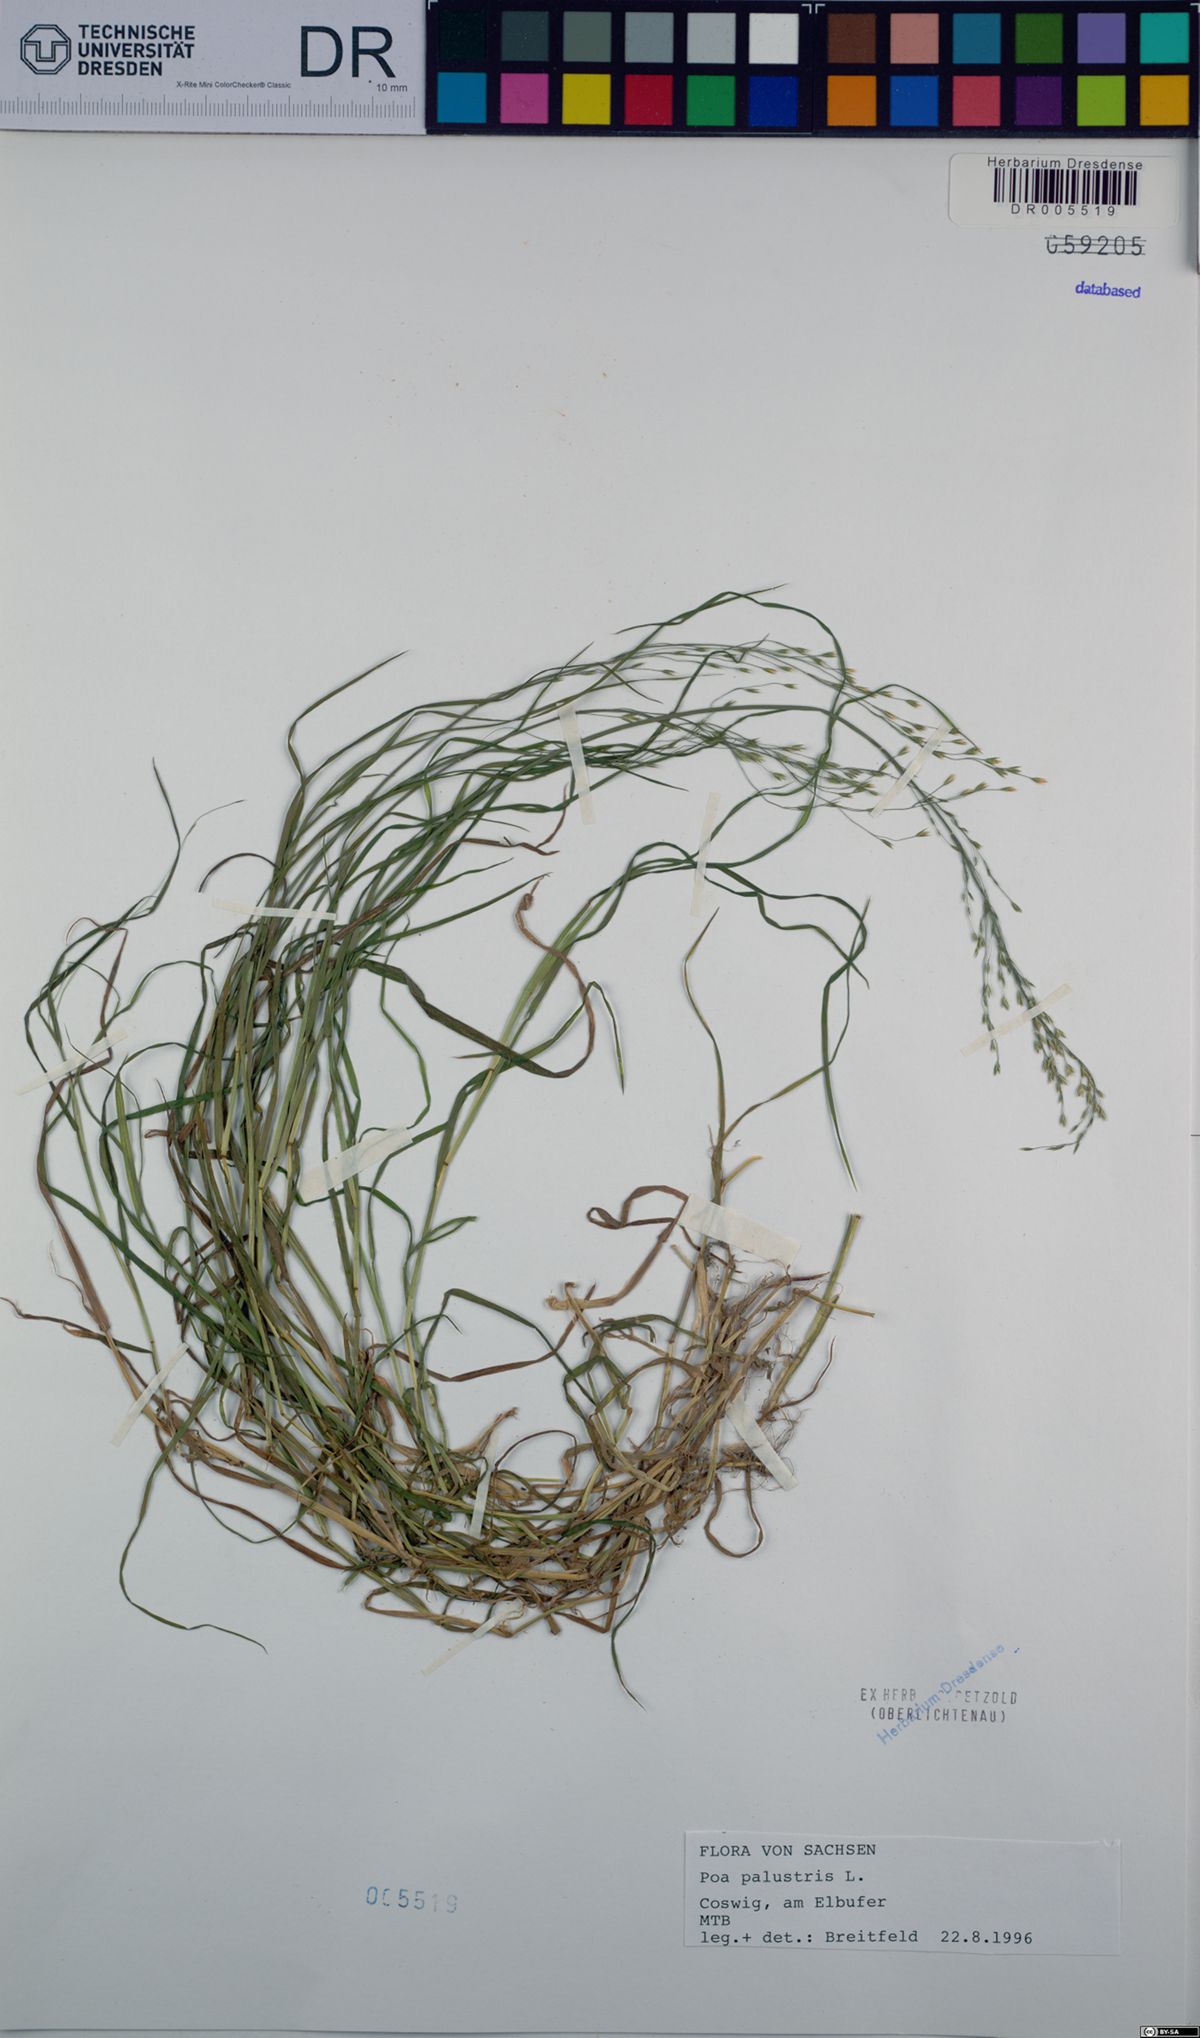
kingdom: Plantae
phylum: Tracheophyta
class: Liliopsida
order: Poales
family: Poaceae
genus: Poa
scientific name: Poa palustris
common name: Swamp meadow-grass
